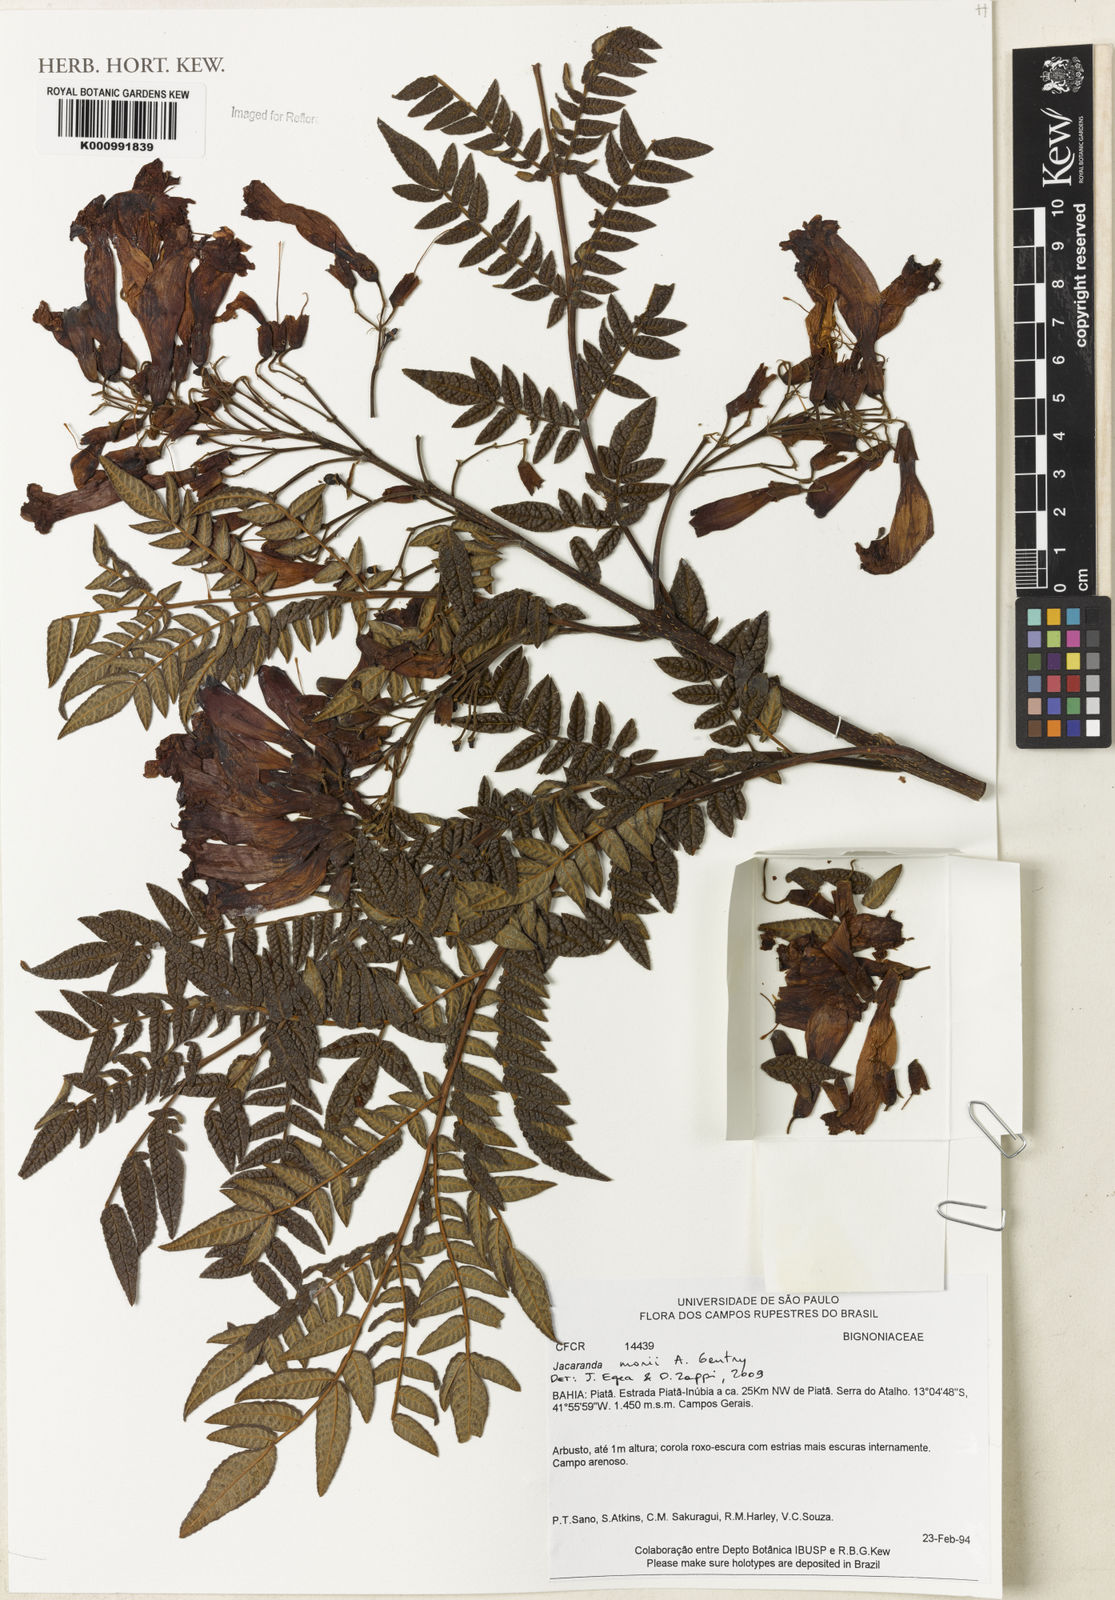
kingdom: Plantae
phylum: Tracheophyta
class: Magnoliopsida
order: Lamiales
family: Bignoniaceae
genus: Jacaranda
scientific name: Jacaranda ulei
